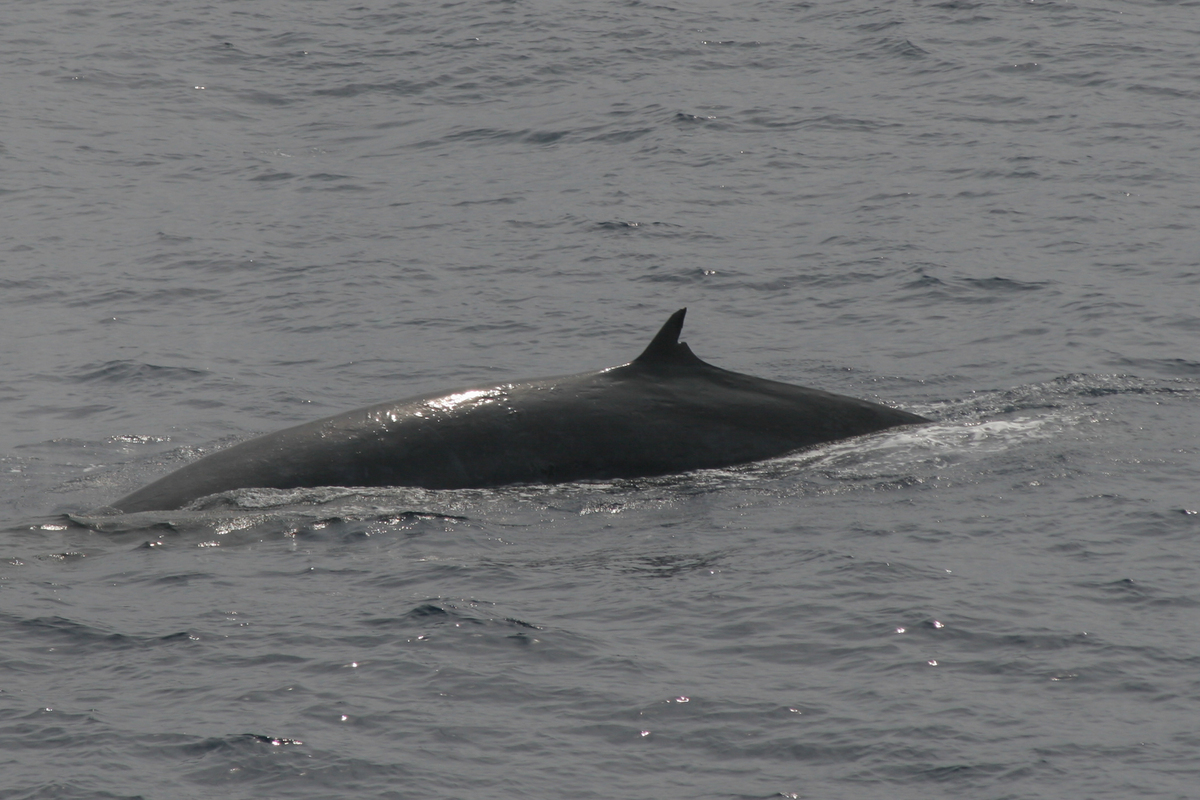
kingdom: Animalia
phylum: Chordata
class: Mammalia
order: Cetacea
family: Balaenopteridae
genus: Balaenoptera
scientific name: Balaenoptera edeni
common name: Bryde's whale
